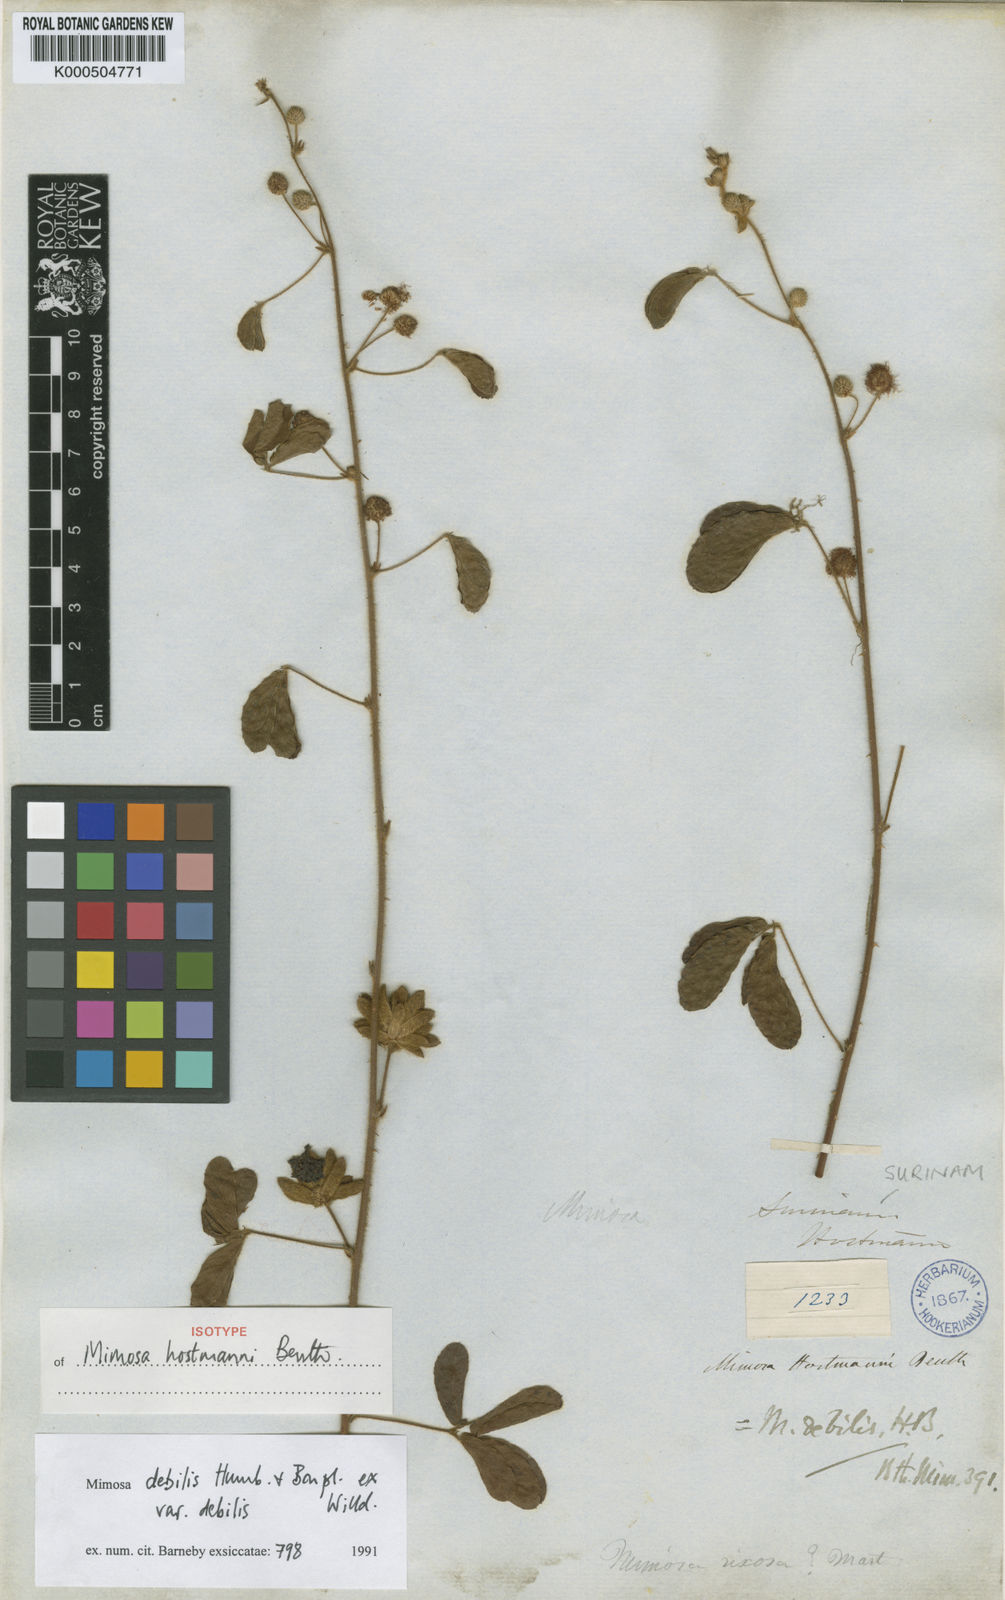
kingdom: Plantae
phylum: Tracheophyta
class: Magnoliopsida
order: Fabales
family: Fabaceae
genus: Mimosa
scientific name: Mimosa debilis
